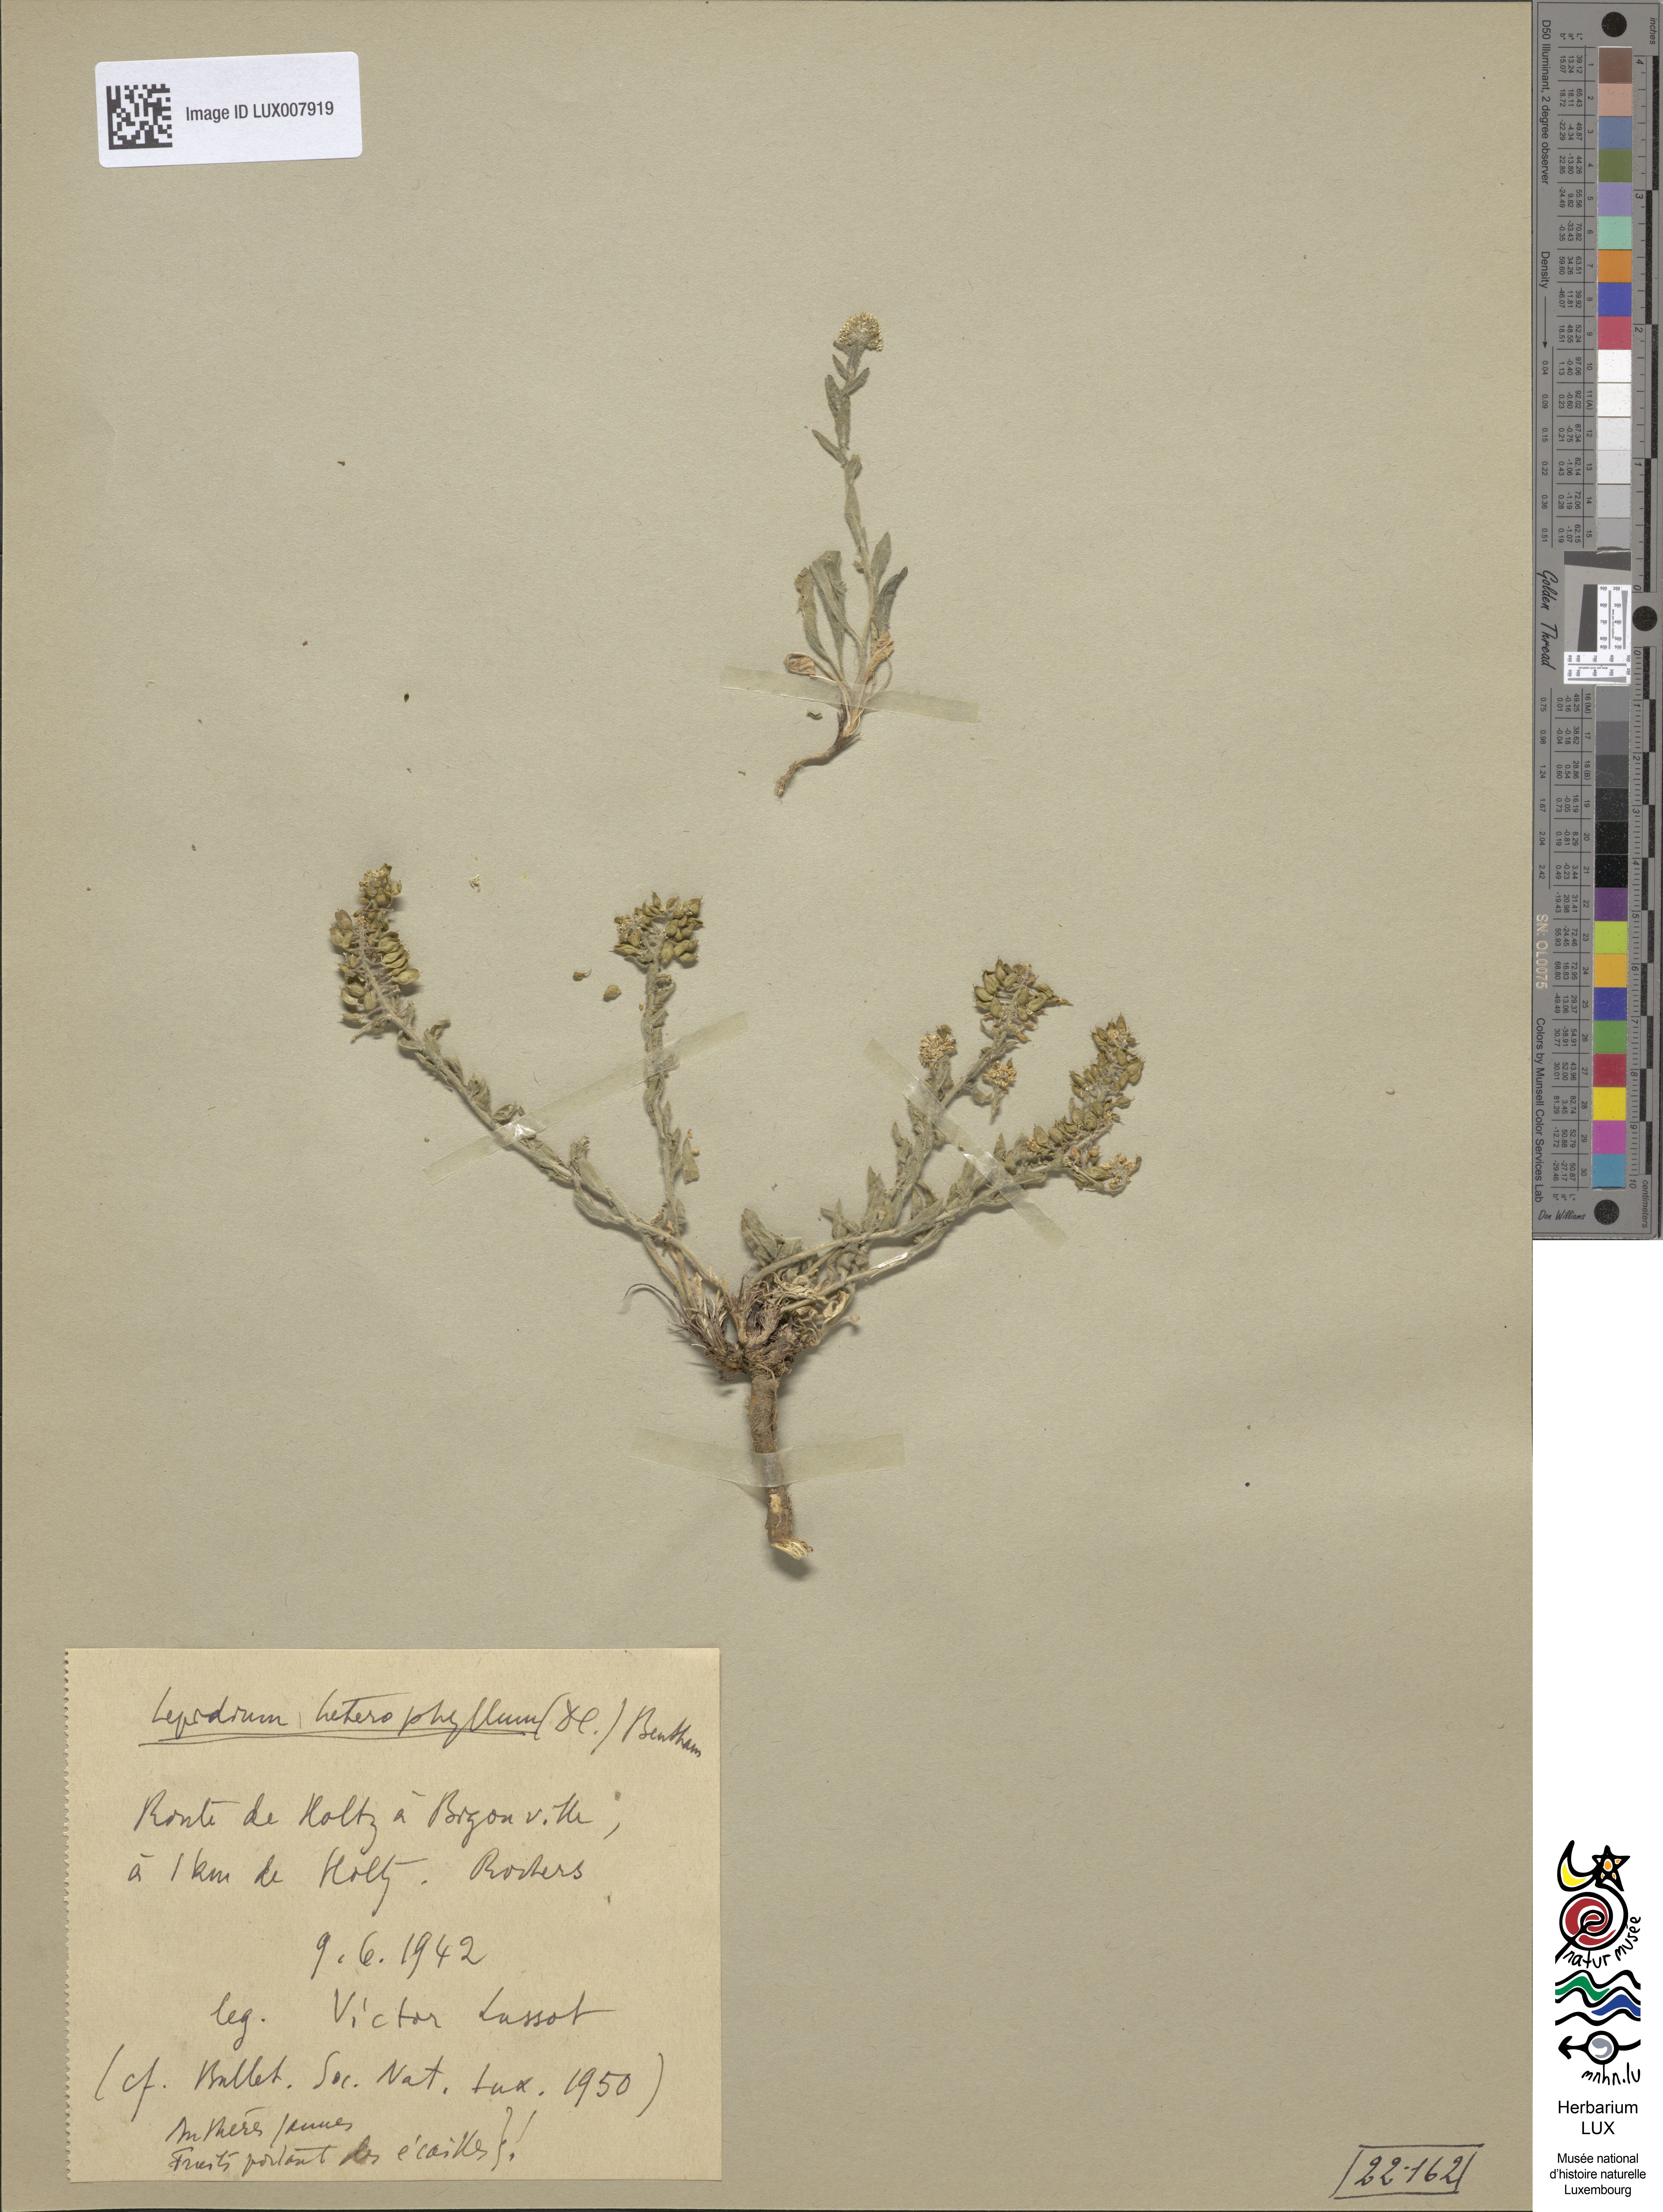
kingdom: Plantae
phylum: Tracheophyta
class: Magnoliopsida
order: Brassicales
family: Brassicaceae
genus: Lepidium
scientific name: Lepidium heterophyllum
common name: Smith's pepperwort
